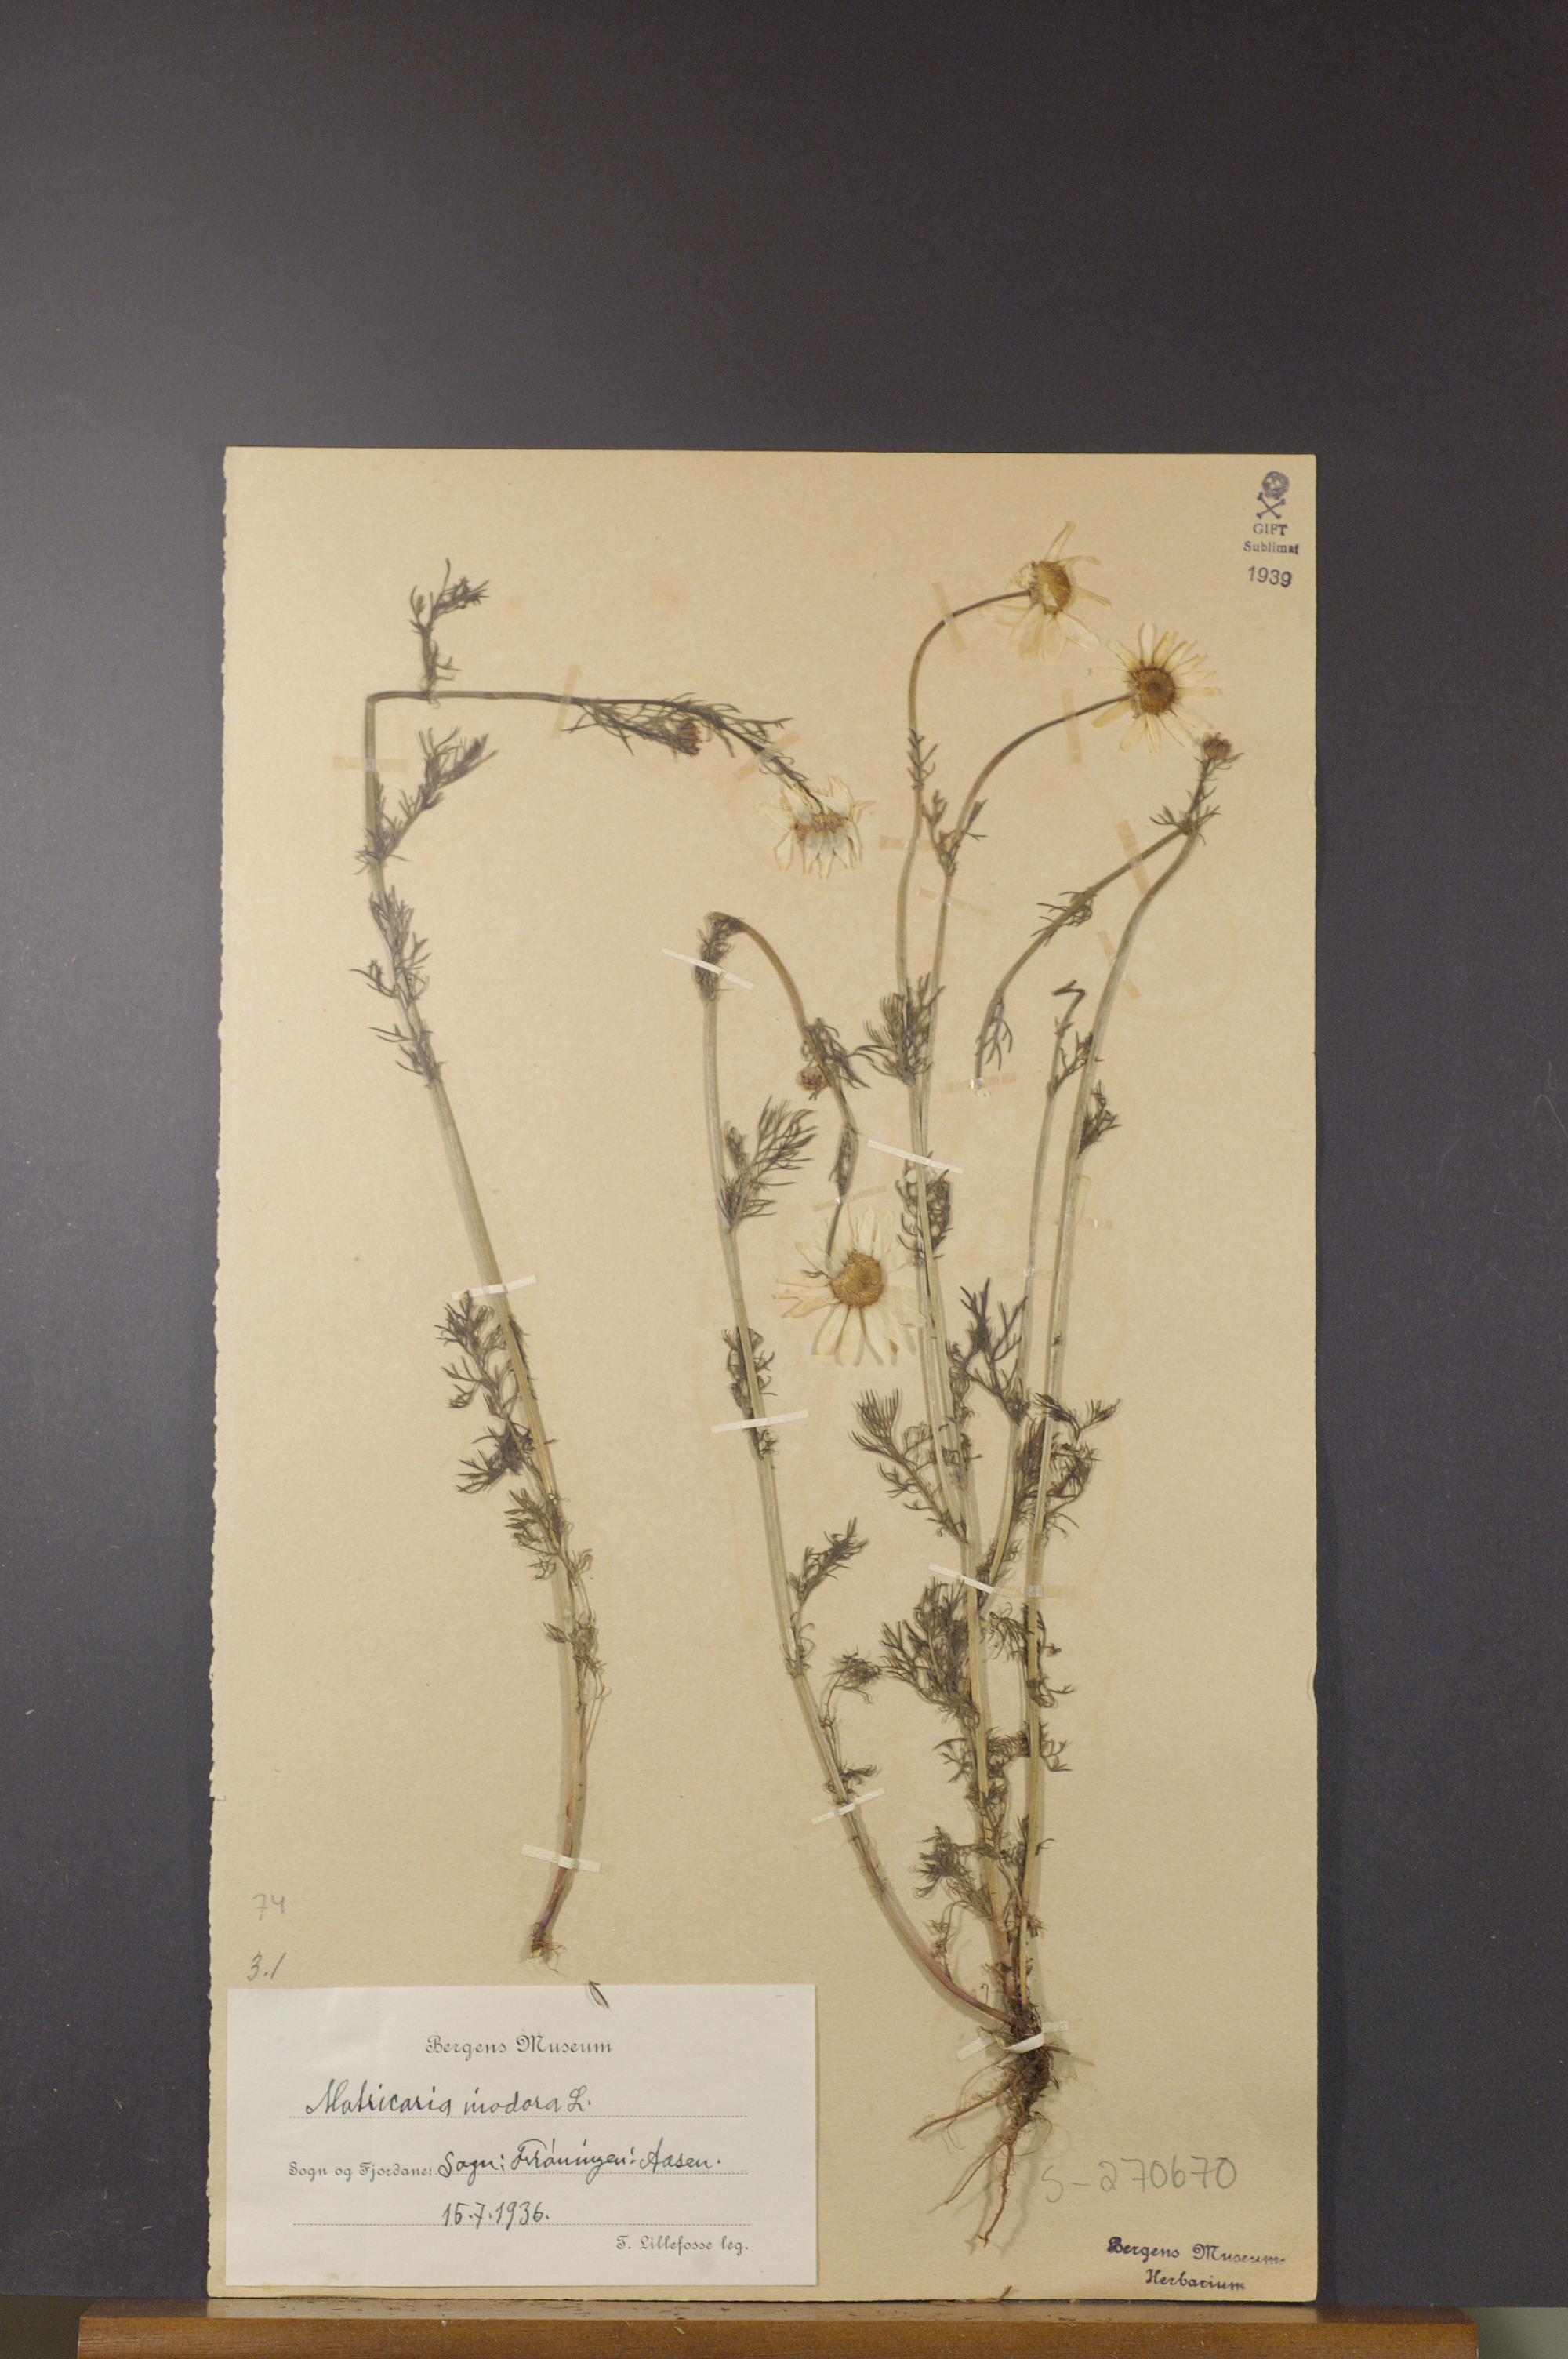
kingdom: Plantae
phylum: Tracheophyta
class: Magnoliopsida
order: Asterales
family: Asteraceae
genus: Tripleurospermum
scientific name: Tripleurospermum inodorum
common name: Scentless mayweed
